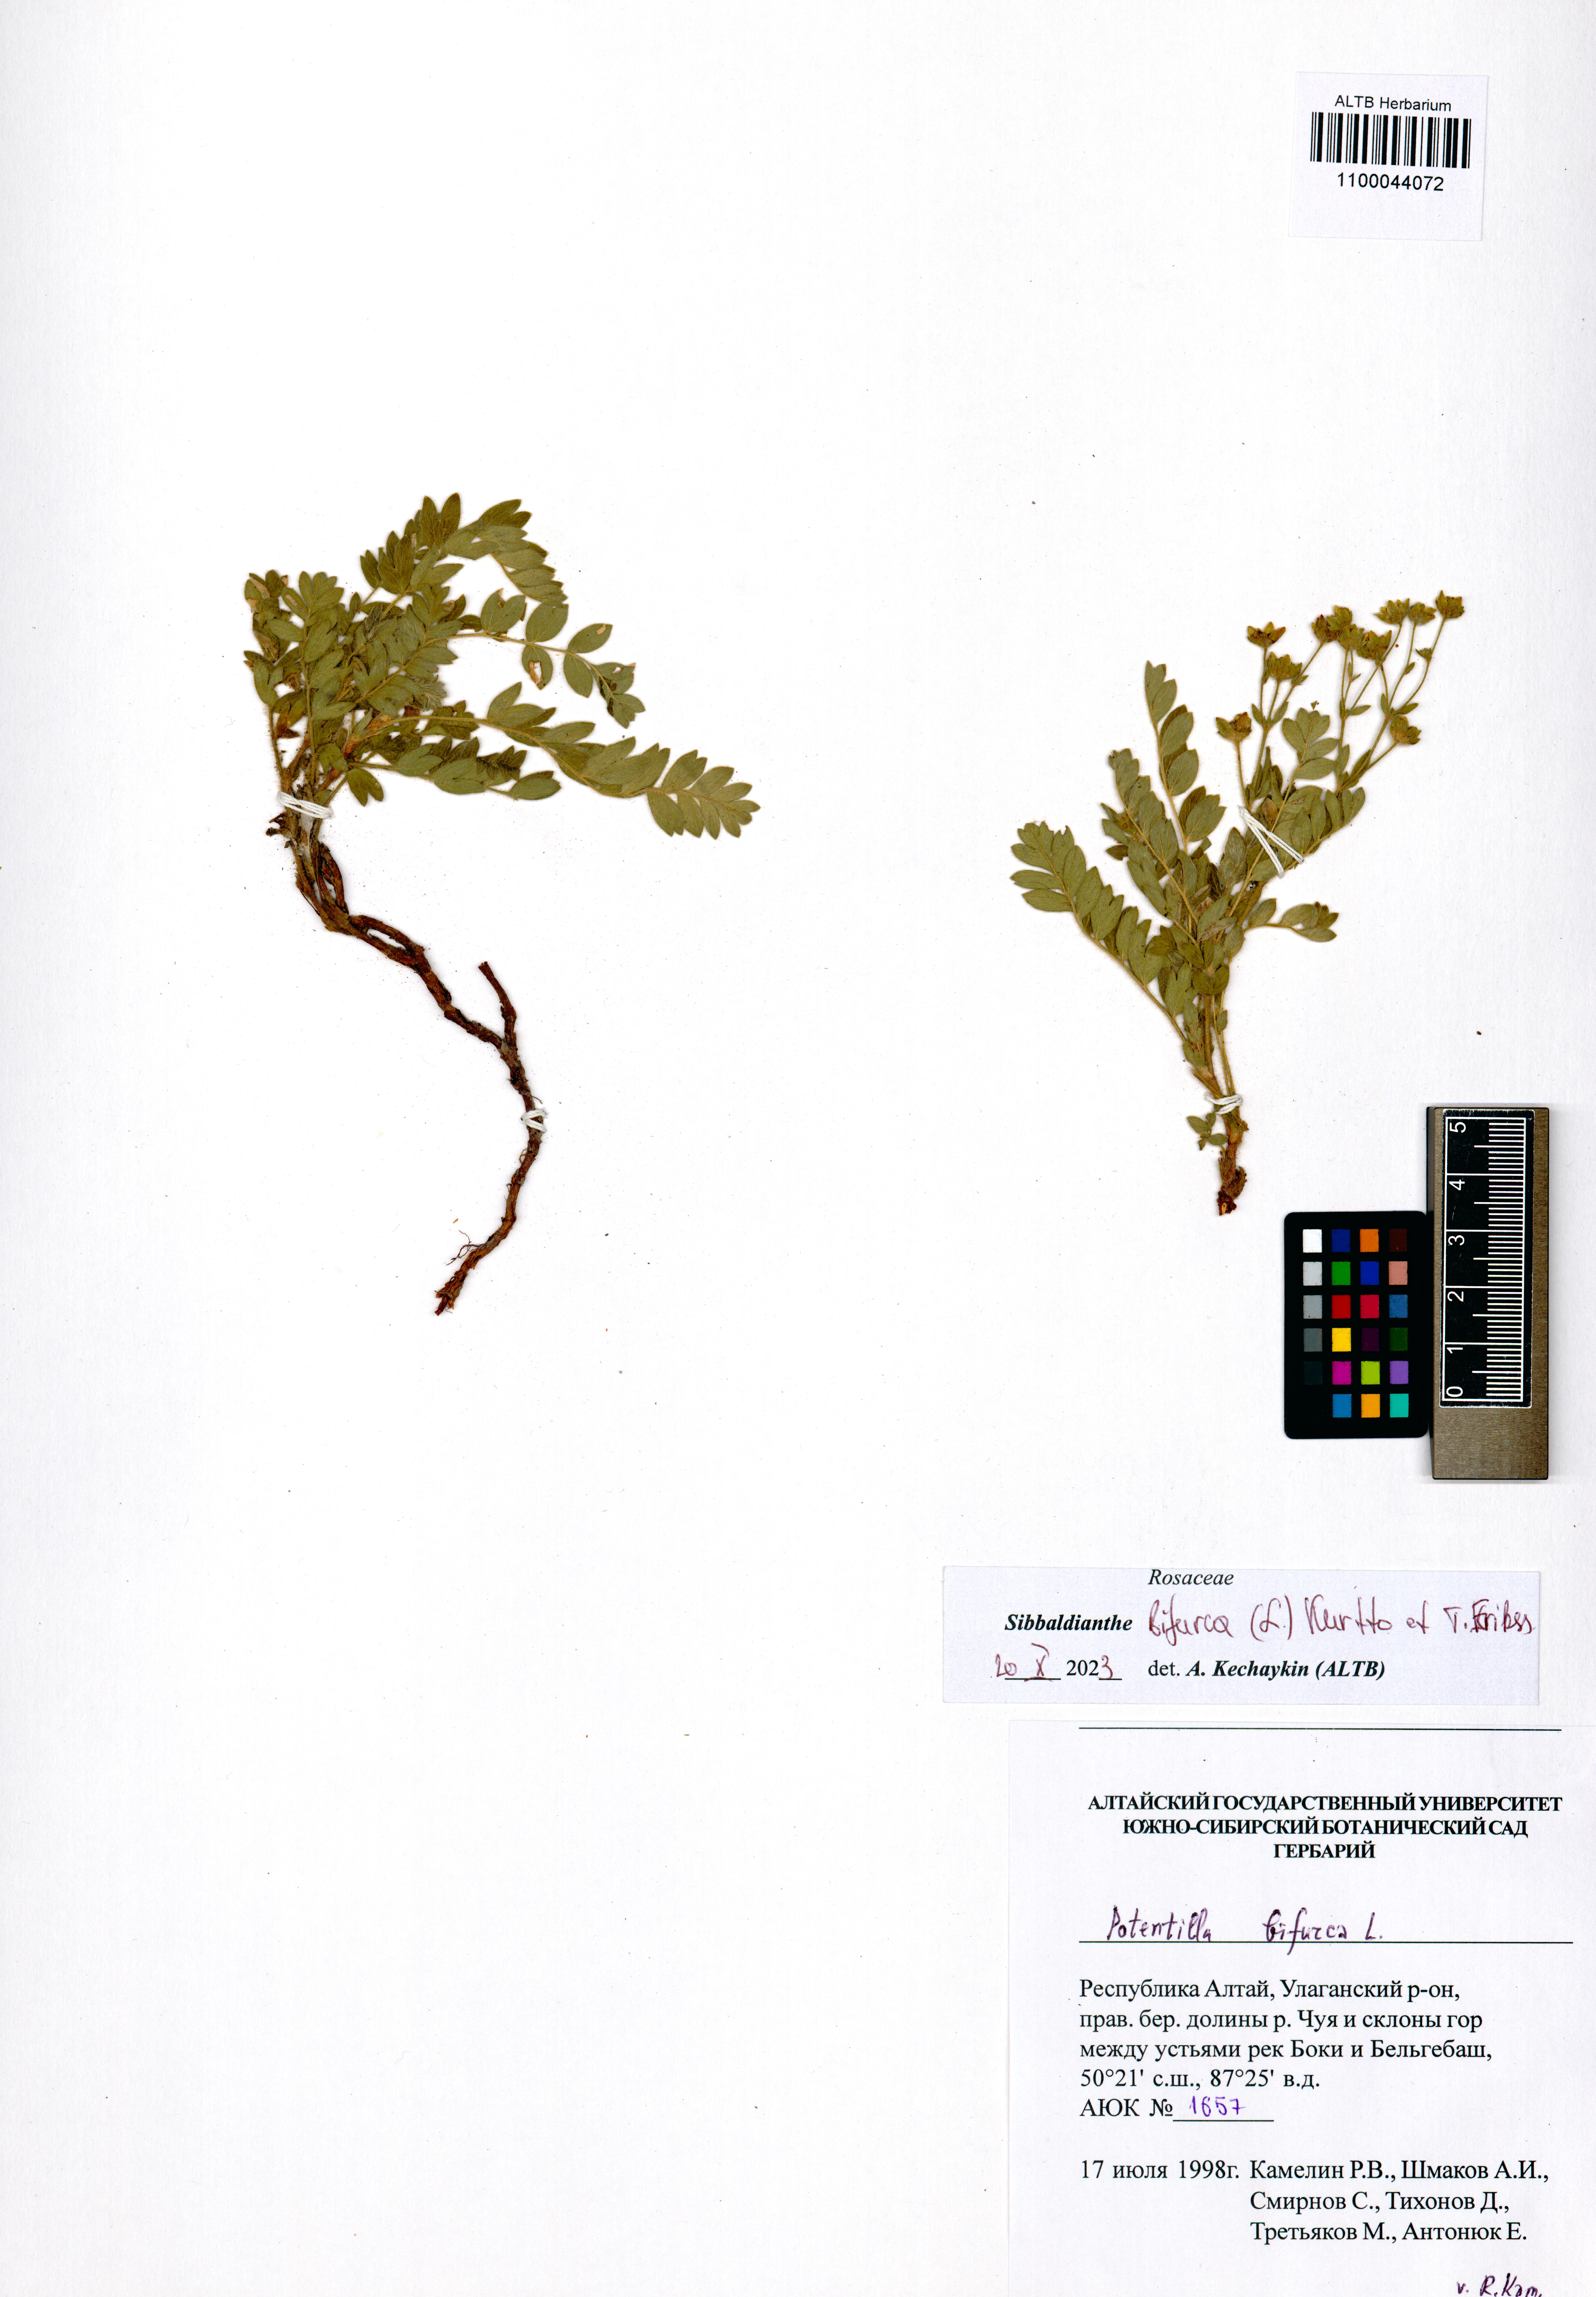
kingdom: Plantae
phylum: Tracheophyta
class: Magnoliopsida
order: Rosales
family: Rosaceae
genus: Sibbaldianthe
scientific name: Sibbaldianthe bifurca
